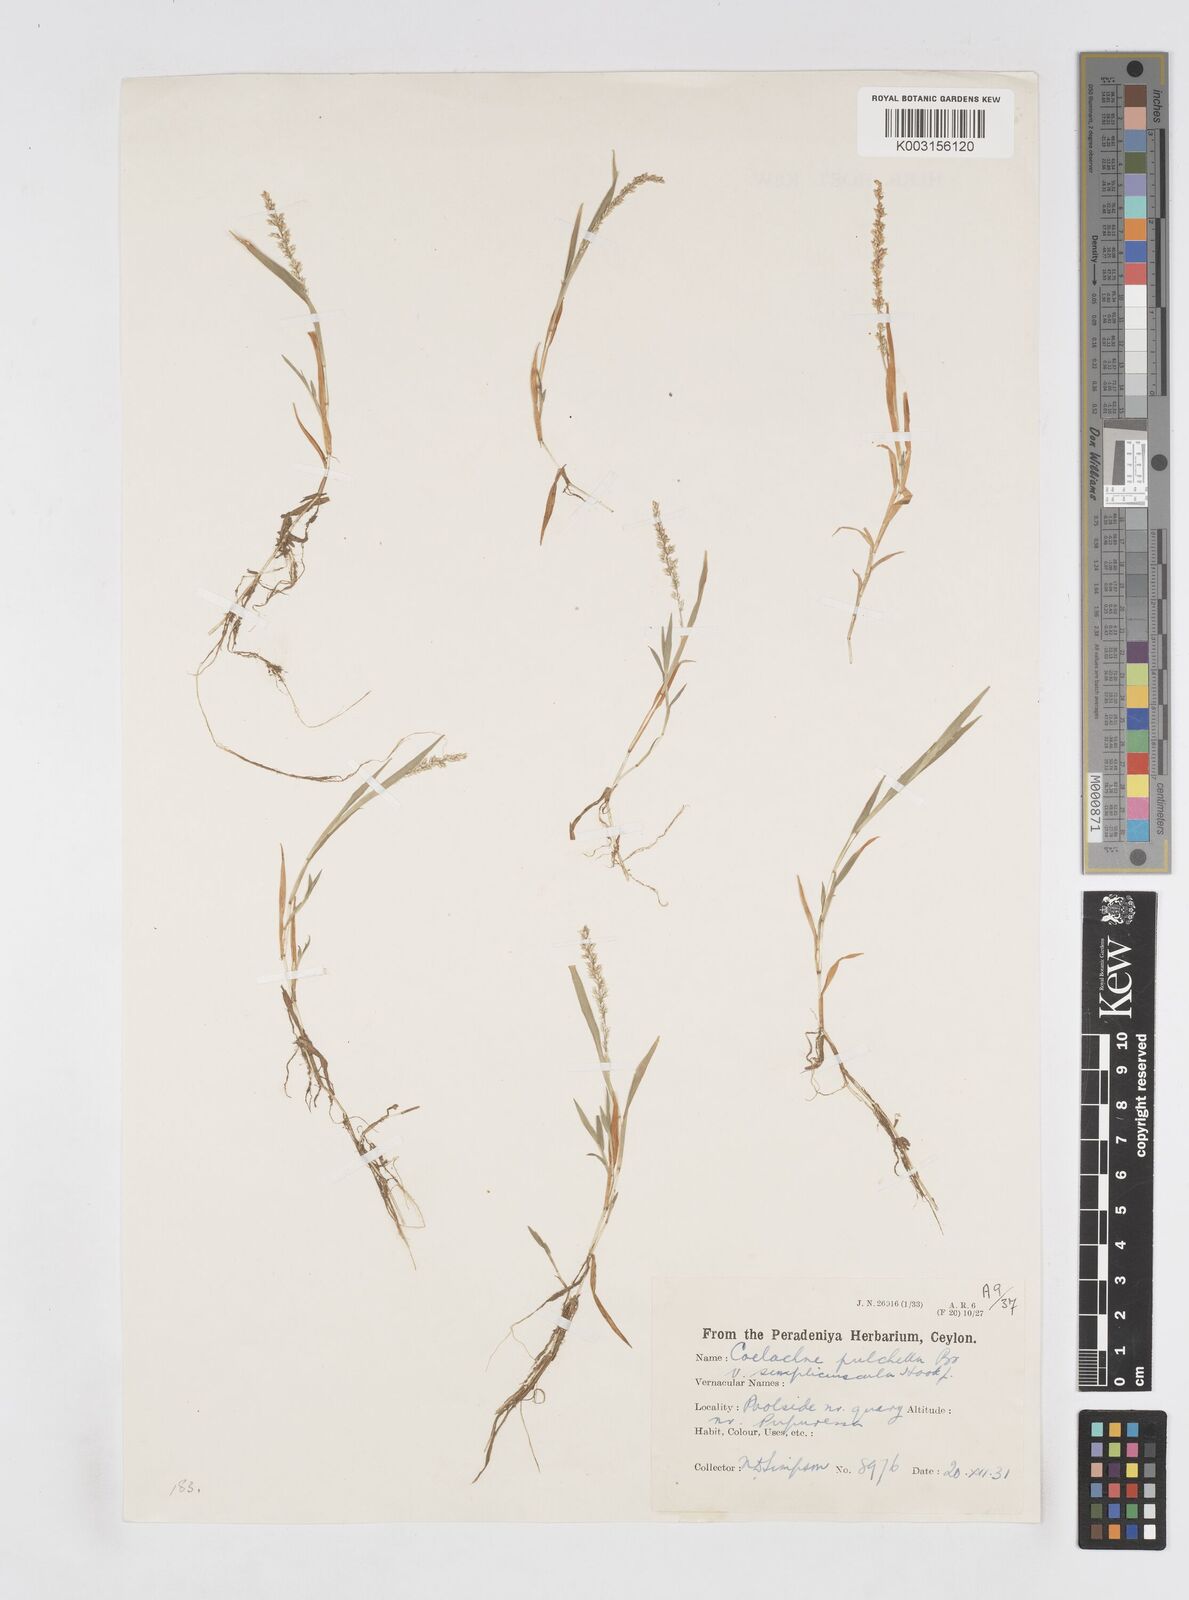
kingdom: Plantae
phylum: Tracheophyta
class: Liliopsida
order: Poales
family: Poaceae
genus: Coelachne
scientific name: Coelachne simpliciuscula
